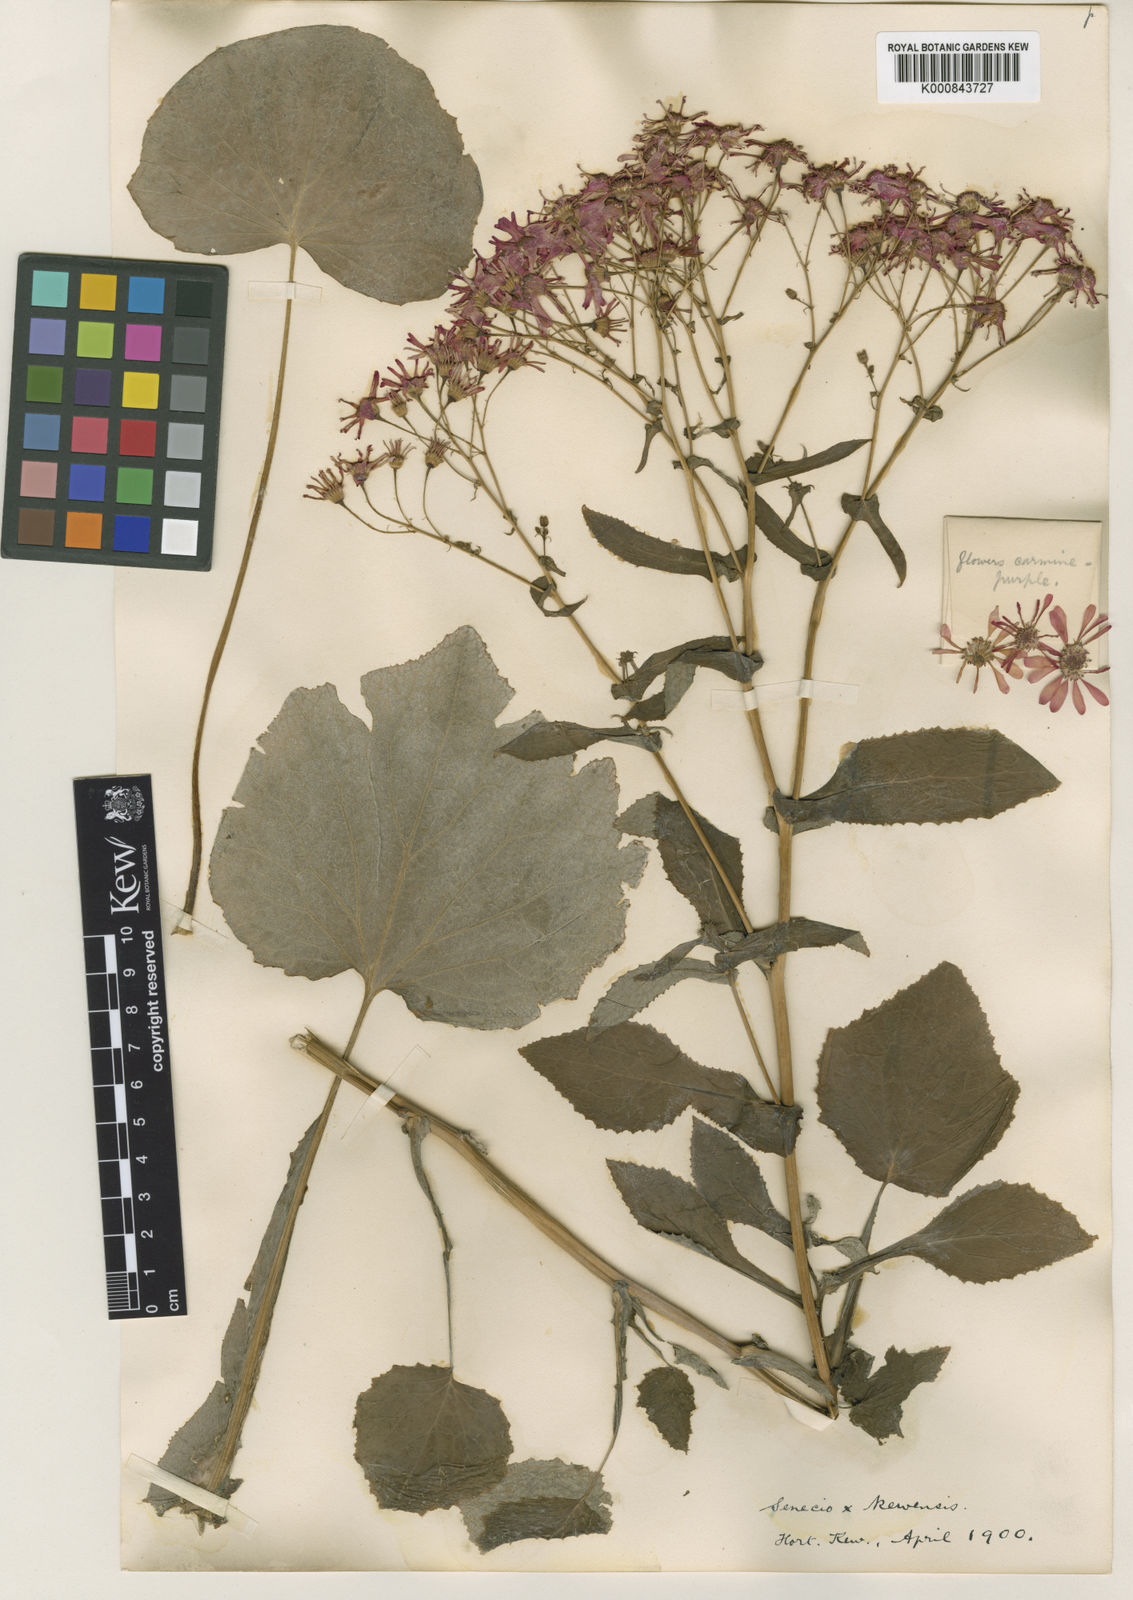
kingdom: Plantae
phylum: Tracheophyta
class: Magnoliopsida
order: Asterales
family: Asteraceae
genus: Pericallis
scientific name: Pericallis cruenta
